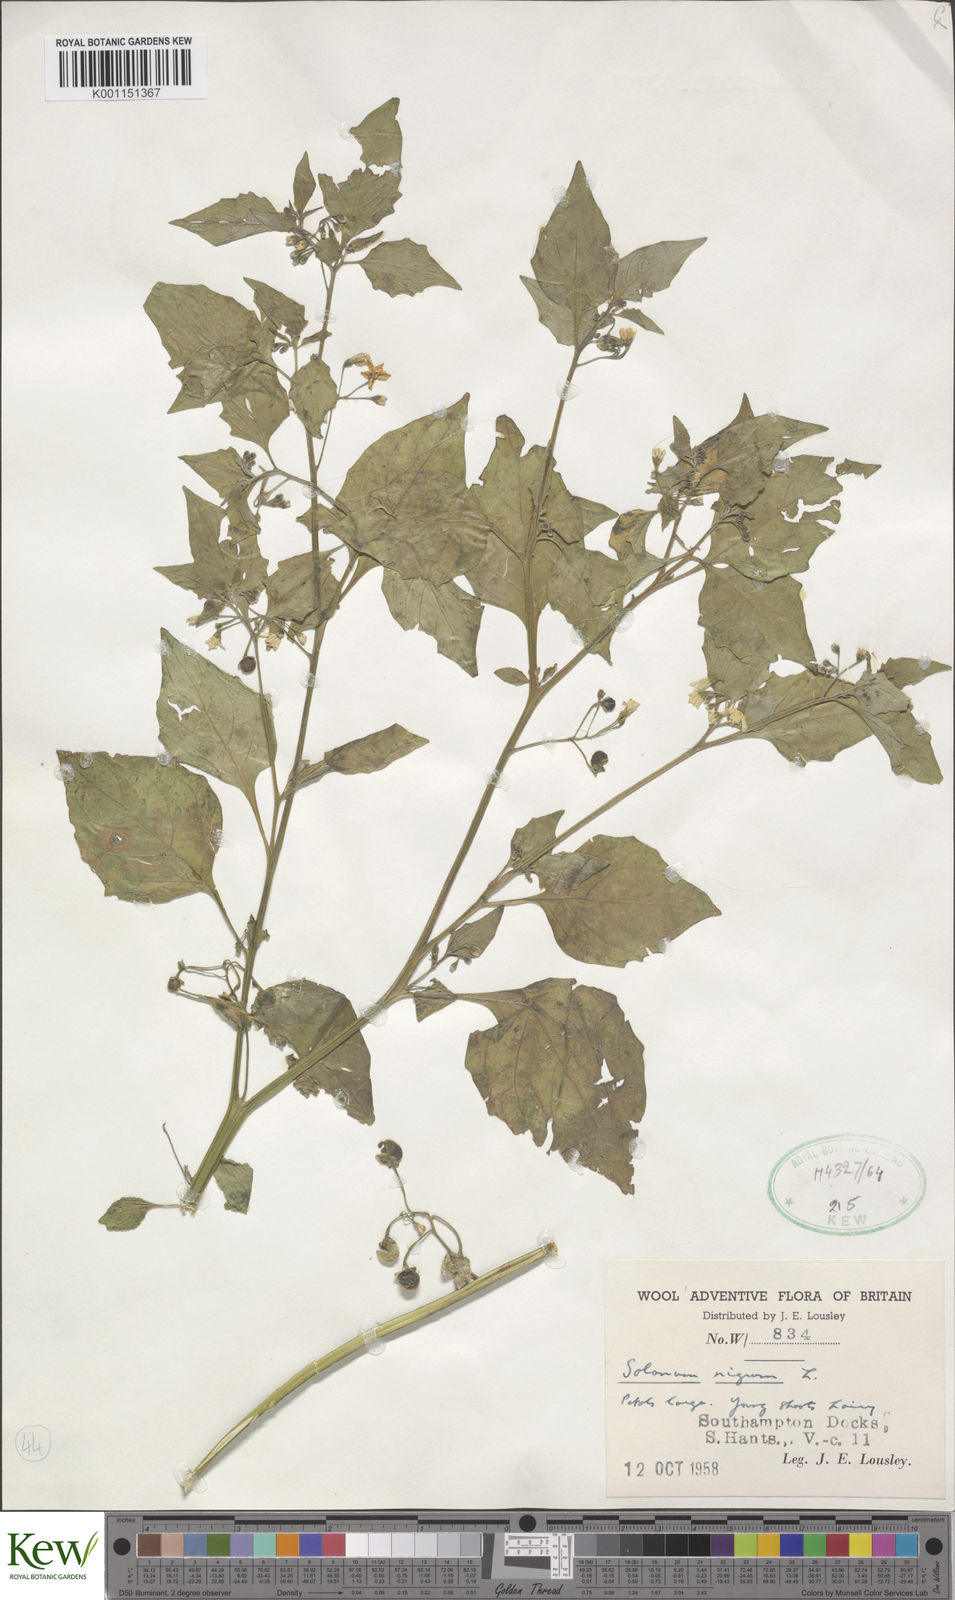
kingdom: Plantae
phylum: Tracheophyta
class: Magnoliopsida
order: Solanales
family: Solanaceae
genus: Solanum
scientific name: Solanum decipiens
